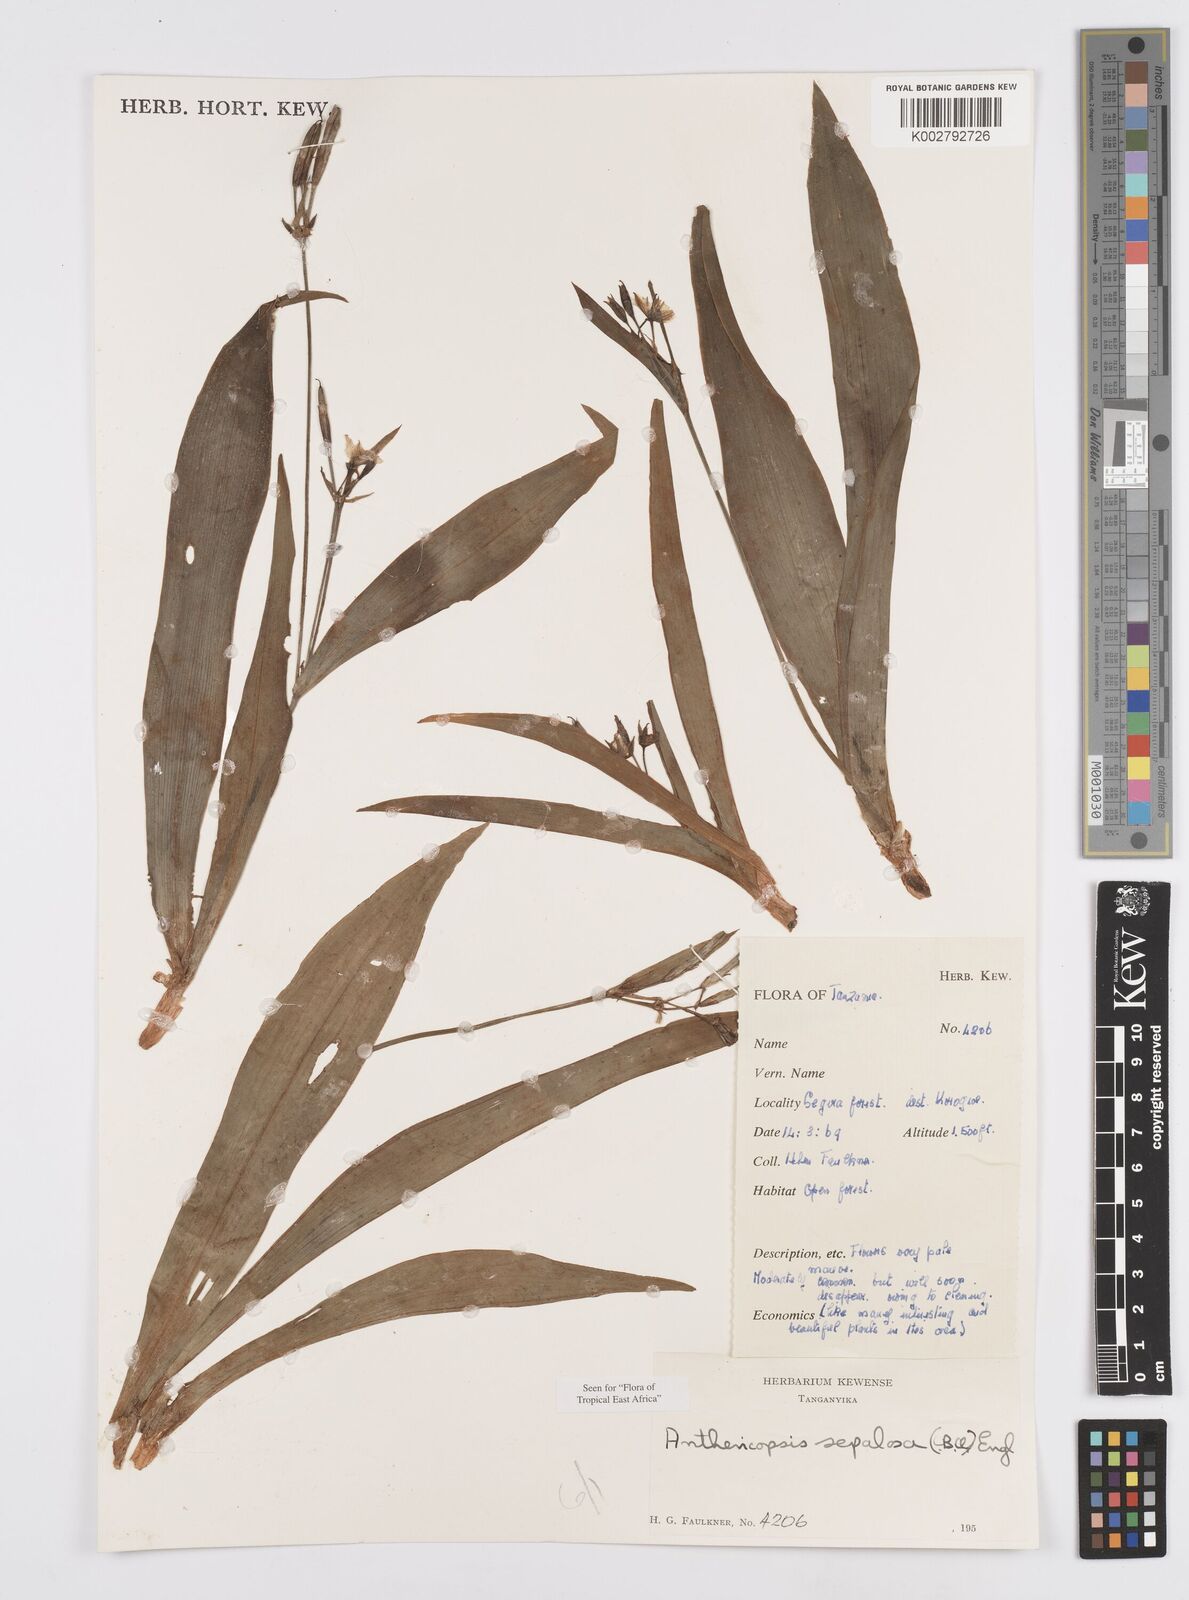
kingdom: Plantae
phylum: Tracheophyta
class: Liliopsida
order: Commelinales
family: Commelinaceae
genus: Anthericopsis
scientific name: Anthericopsis sepalosa
